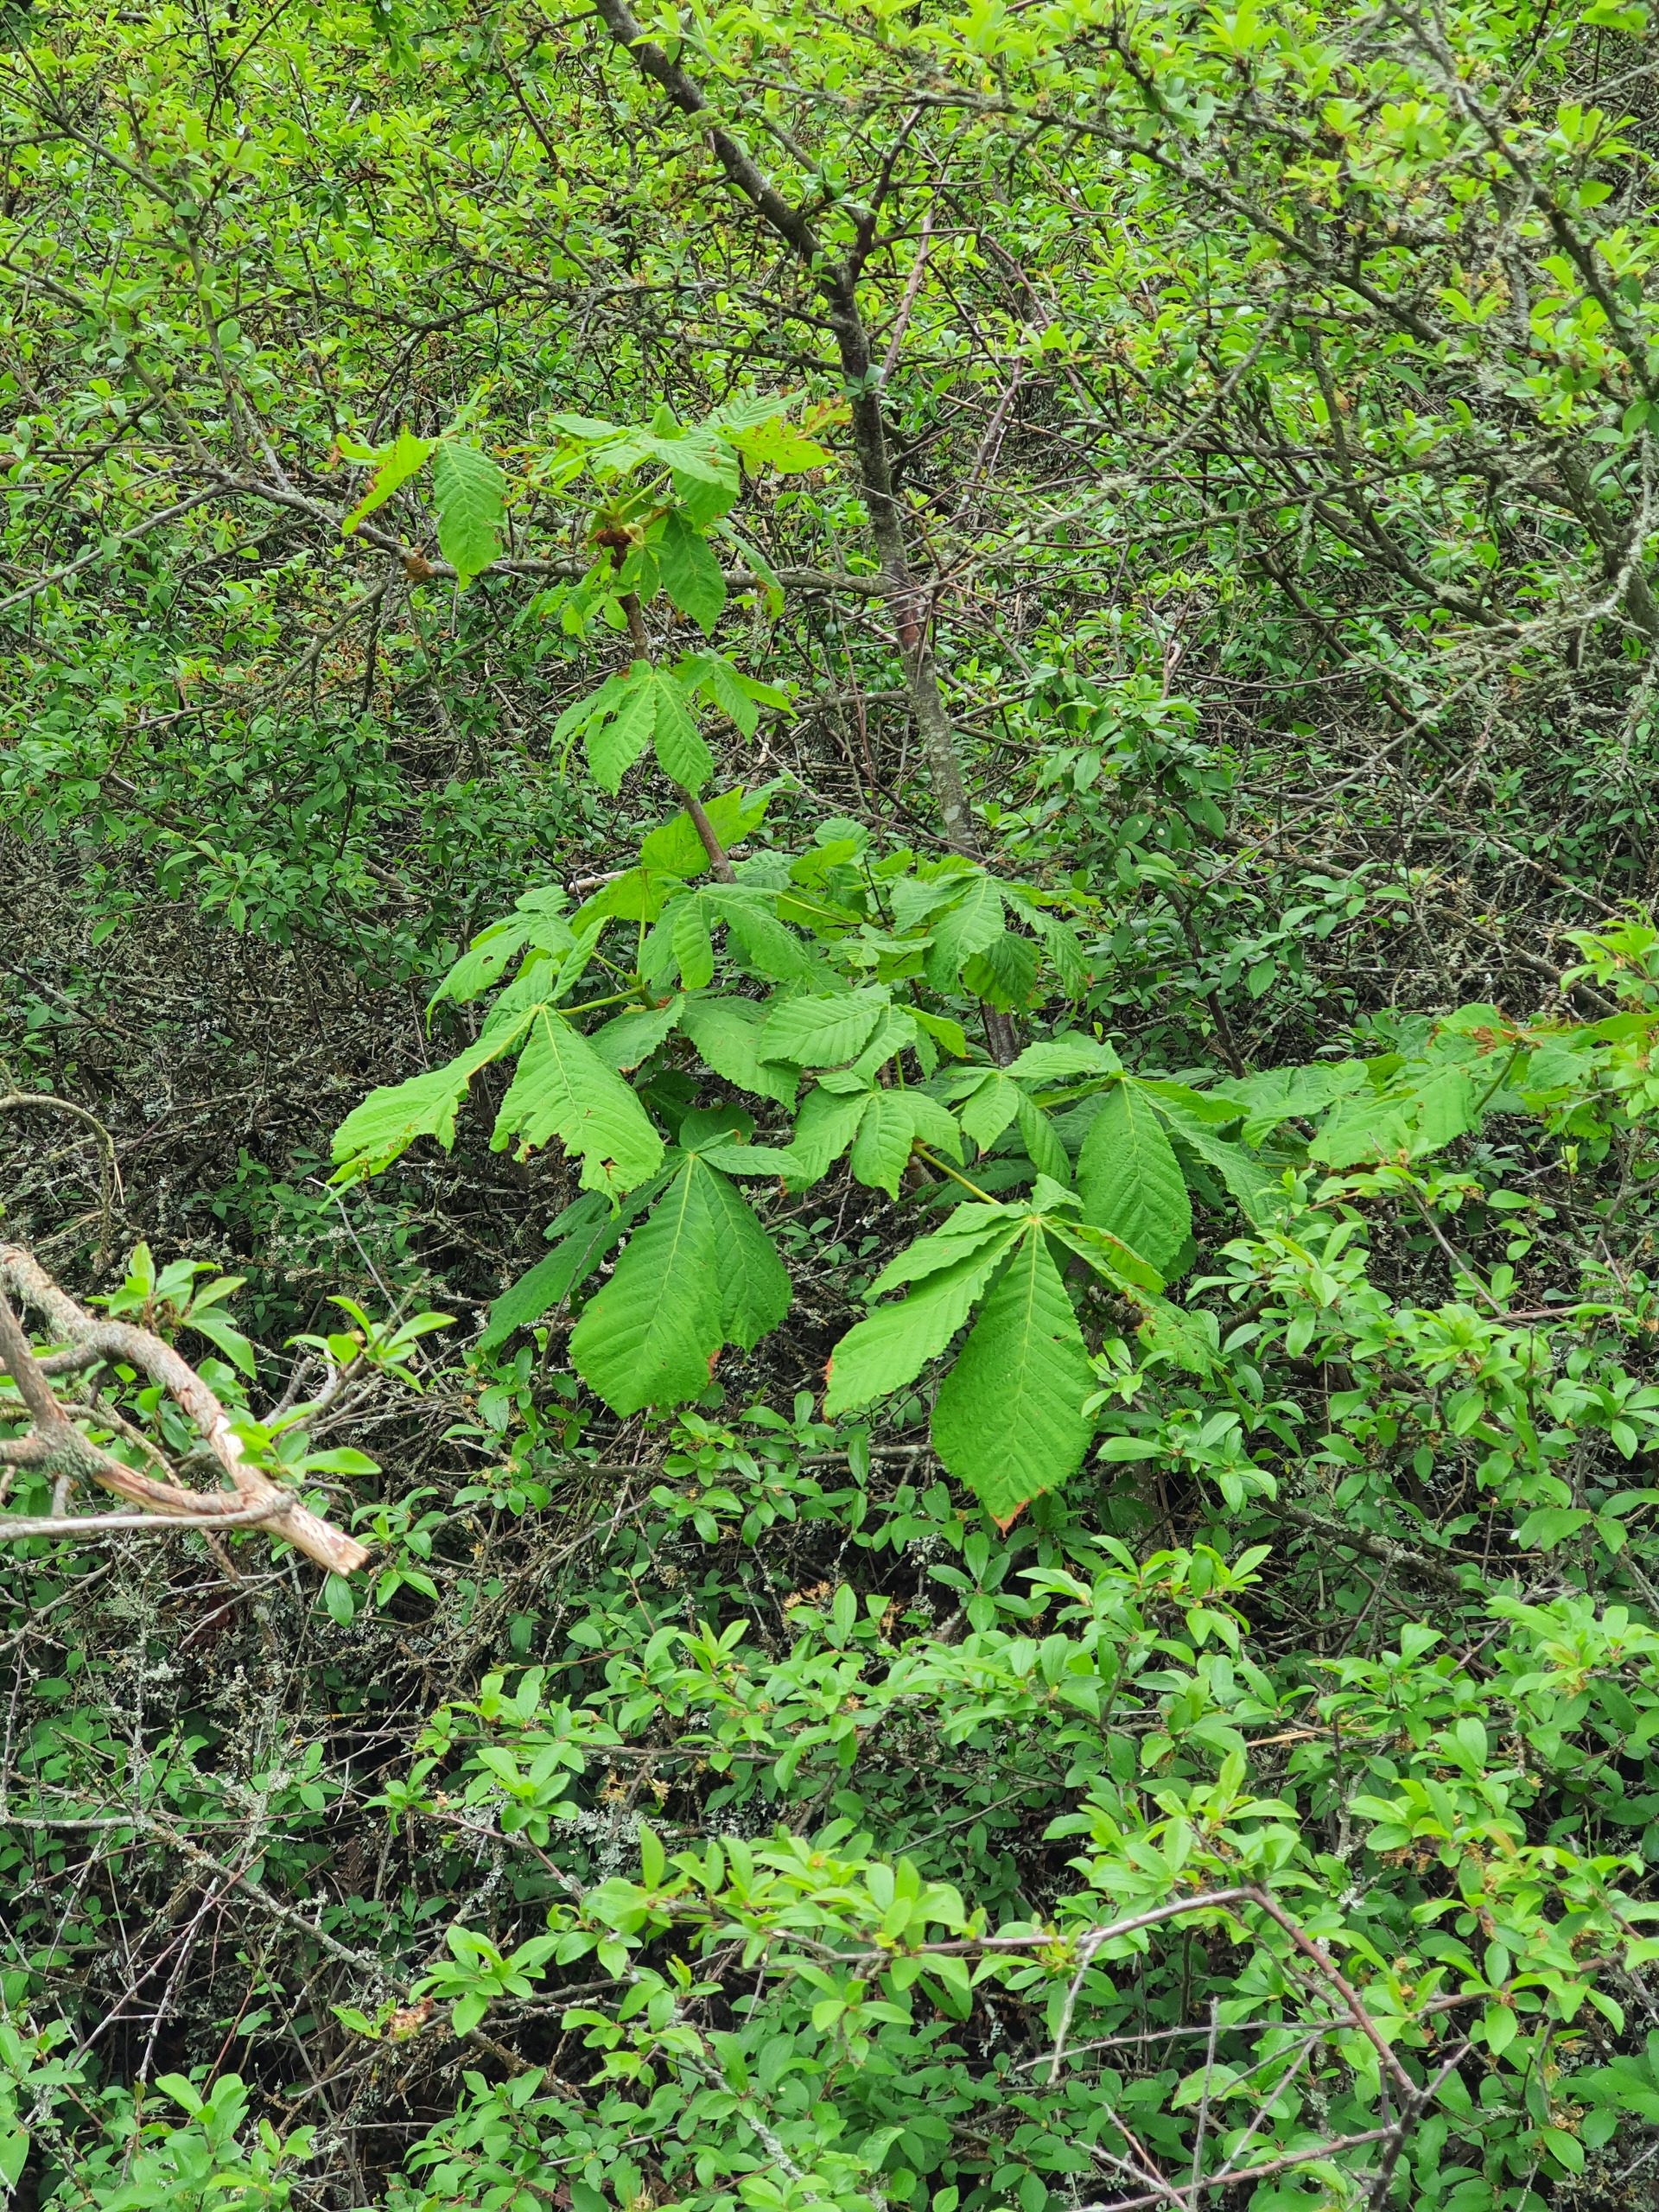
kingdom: Plantae
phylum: Tracheophyta
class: Magnoliopsida
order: Sapindales
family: Sapindaceae
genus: Aesculus
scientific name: Aesculus hippocastanum
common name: Hestekastanie
